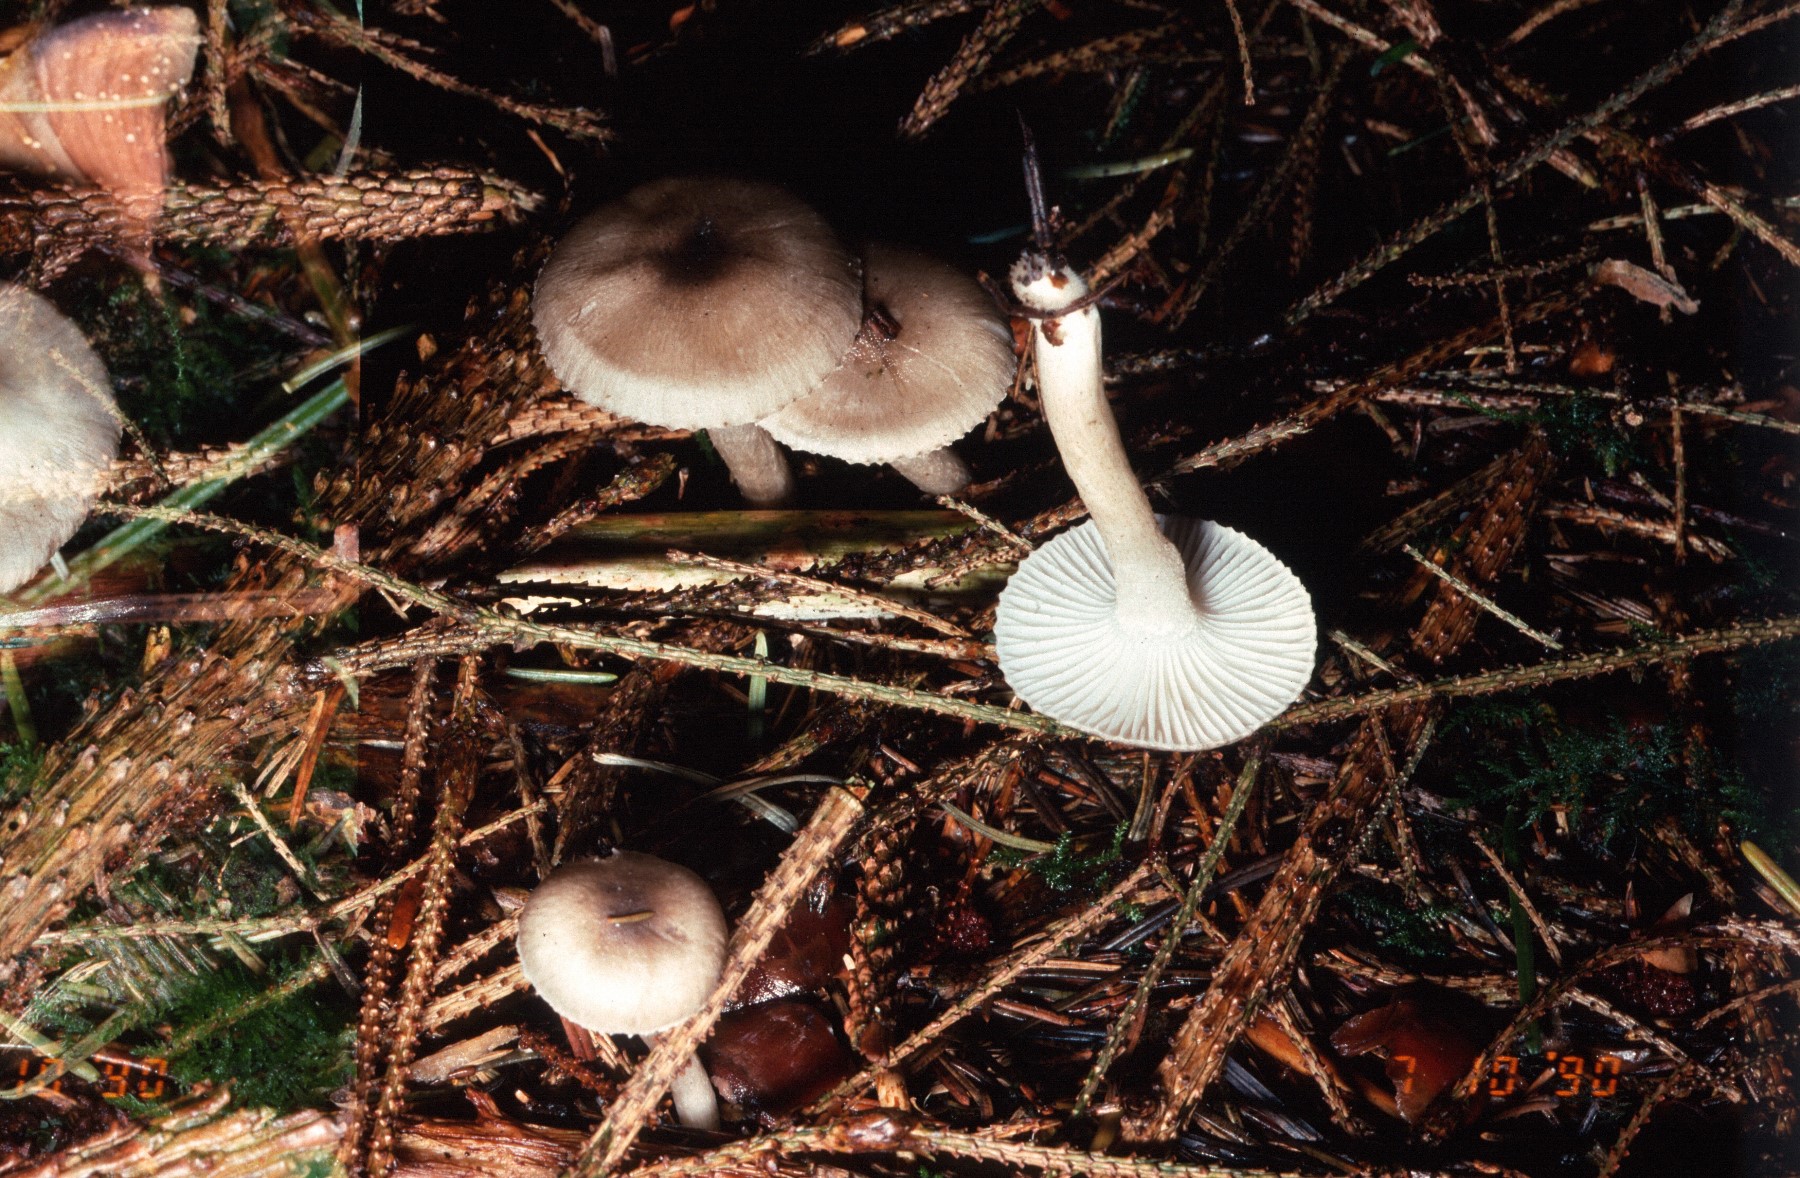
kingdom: Fungi
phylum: Basidiomycota
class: Agaricomycetes
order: Agaricales
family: Hygrophoraceae
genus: Hygrophorus
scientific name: Hygrophorus pustulatus
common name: mørkprikket sneglehat
